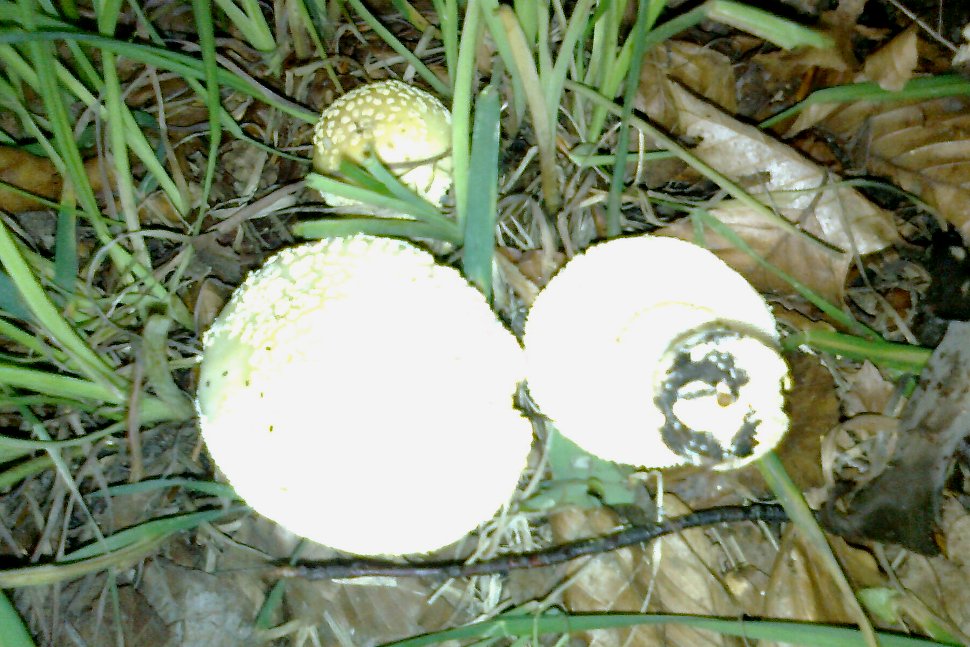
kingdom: Fungi
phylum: Basidiomycota
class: Agaricomycetes
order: Agaricales
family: Amanitaceae
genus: Amanita
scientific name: Amanita franchetii
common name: gulrandet fluesvamp
